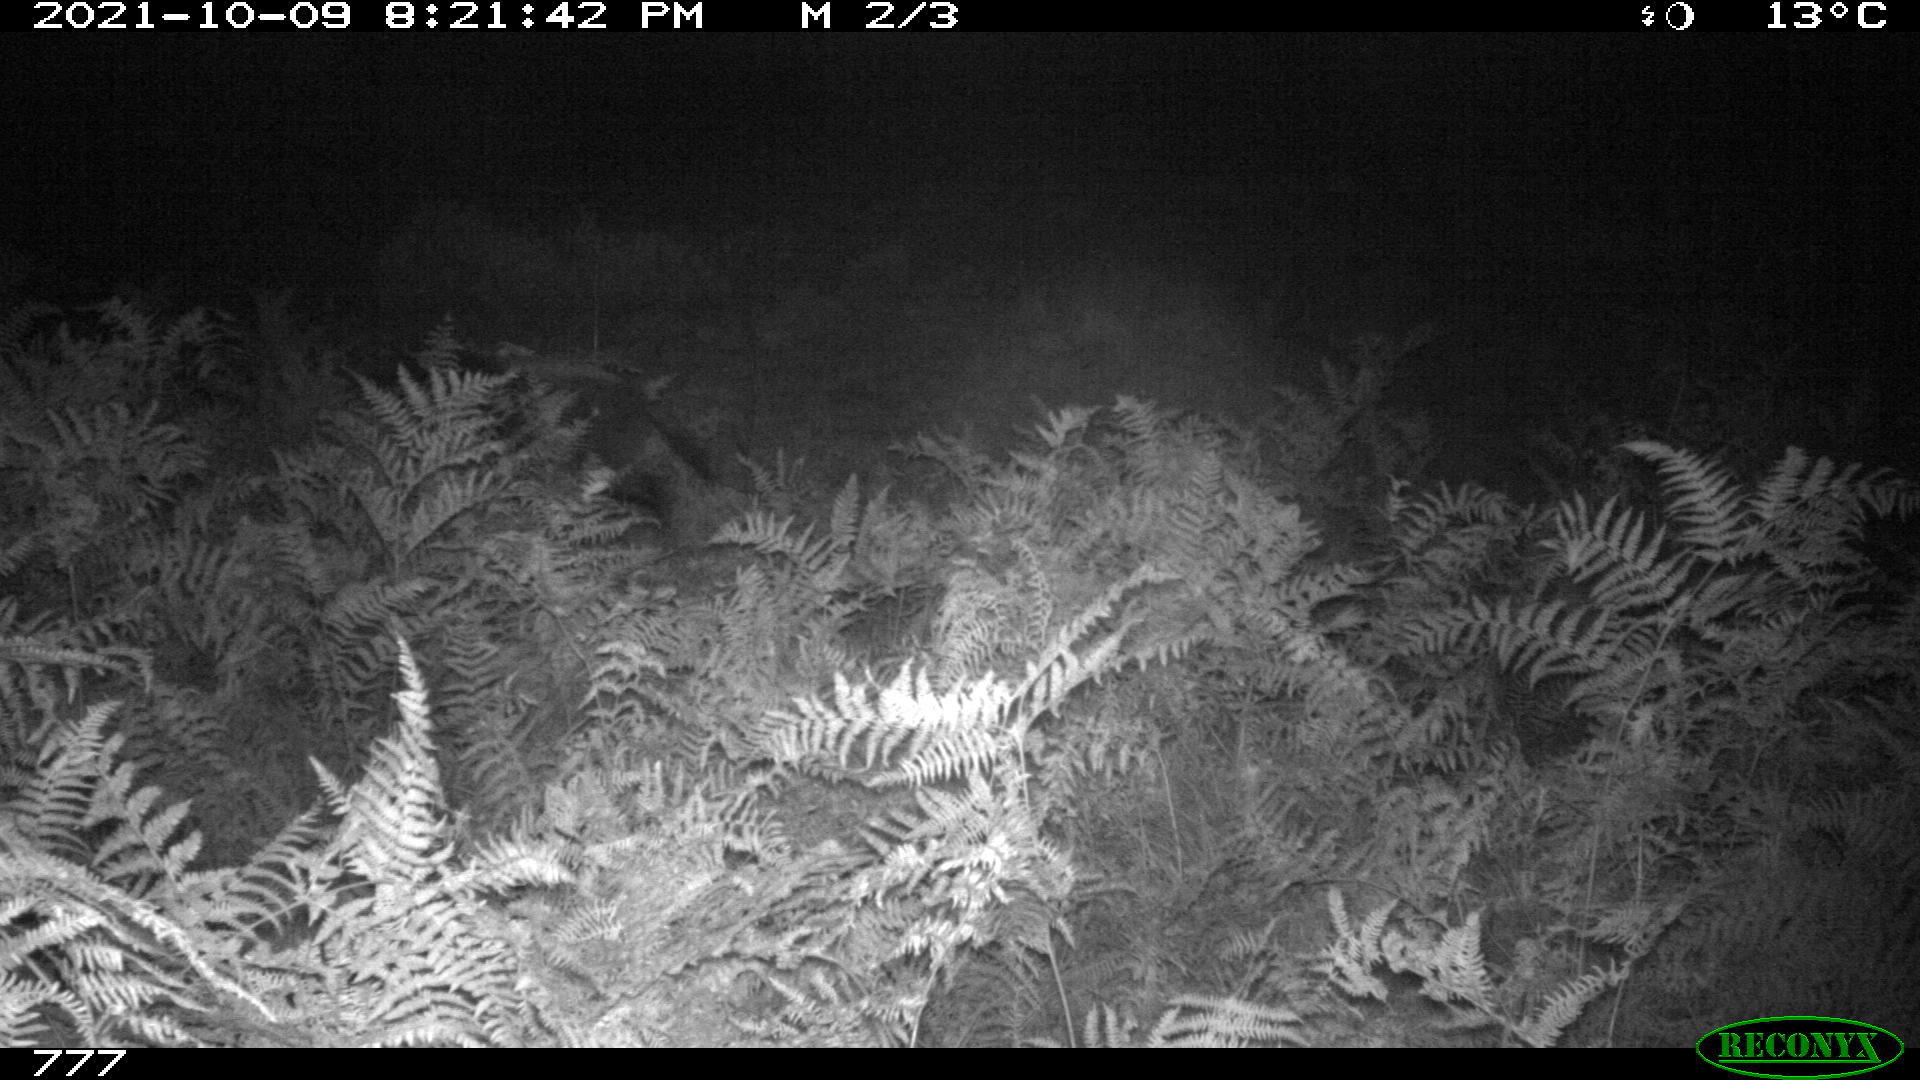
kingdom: Animalia
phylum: Chordata
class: Mammalia
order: Artiodactyla
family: Suidae
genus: Sus
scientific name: Sus scrofa
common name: Wild boar
